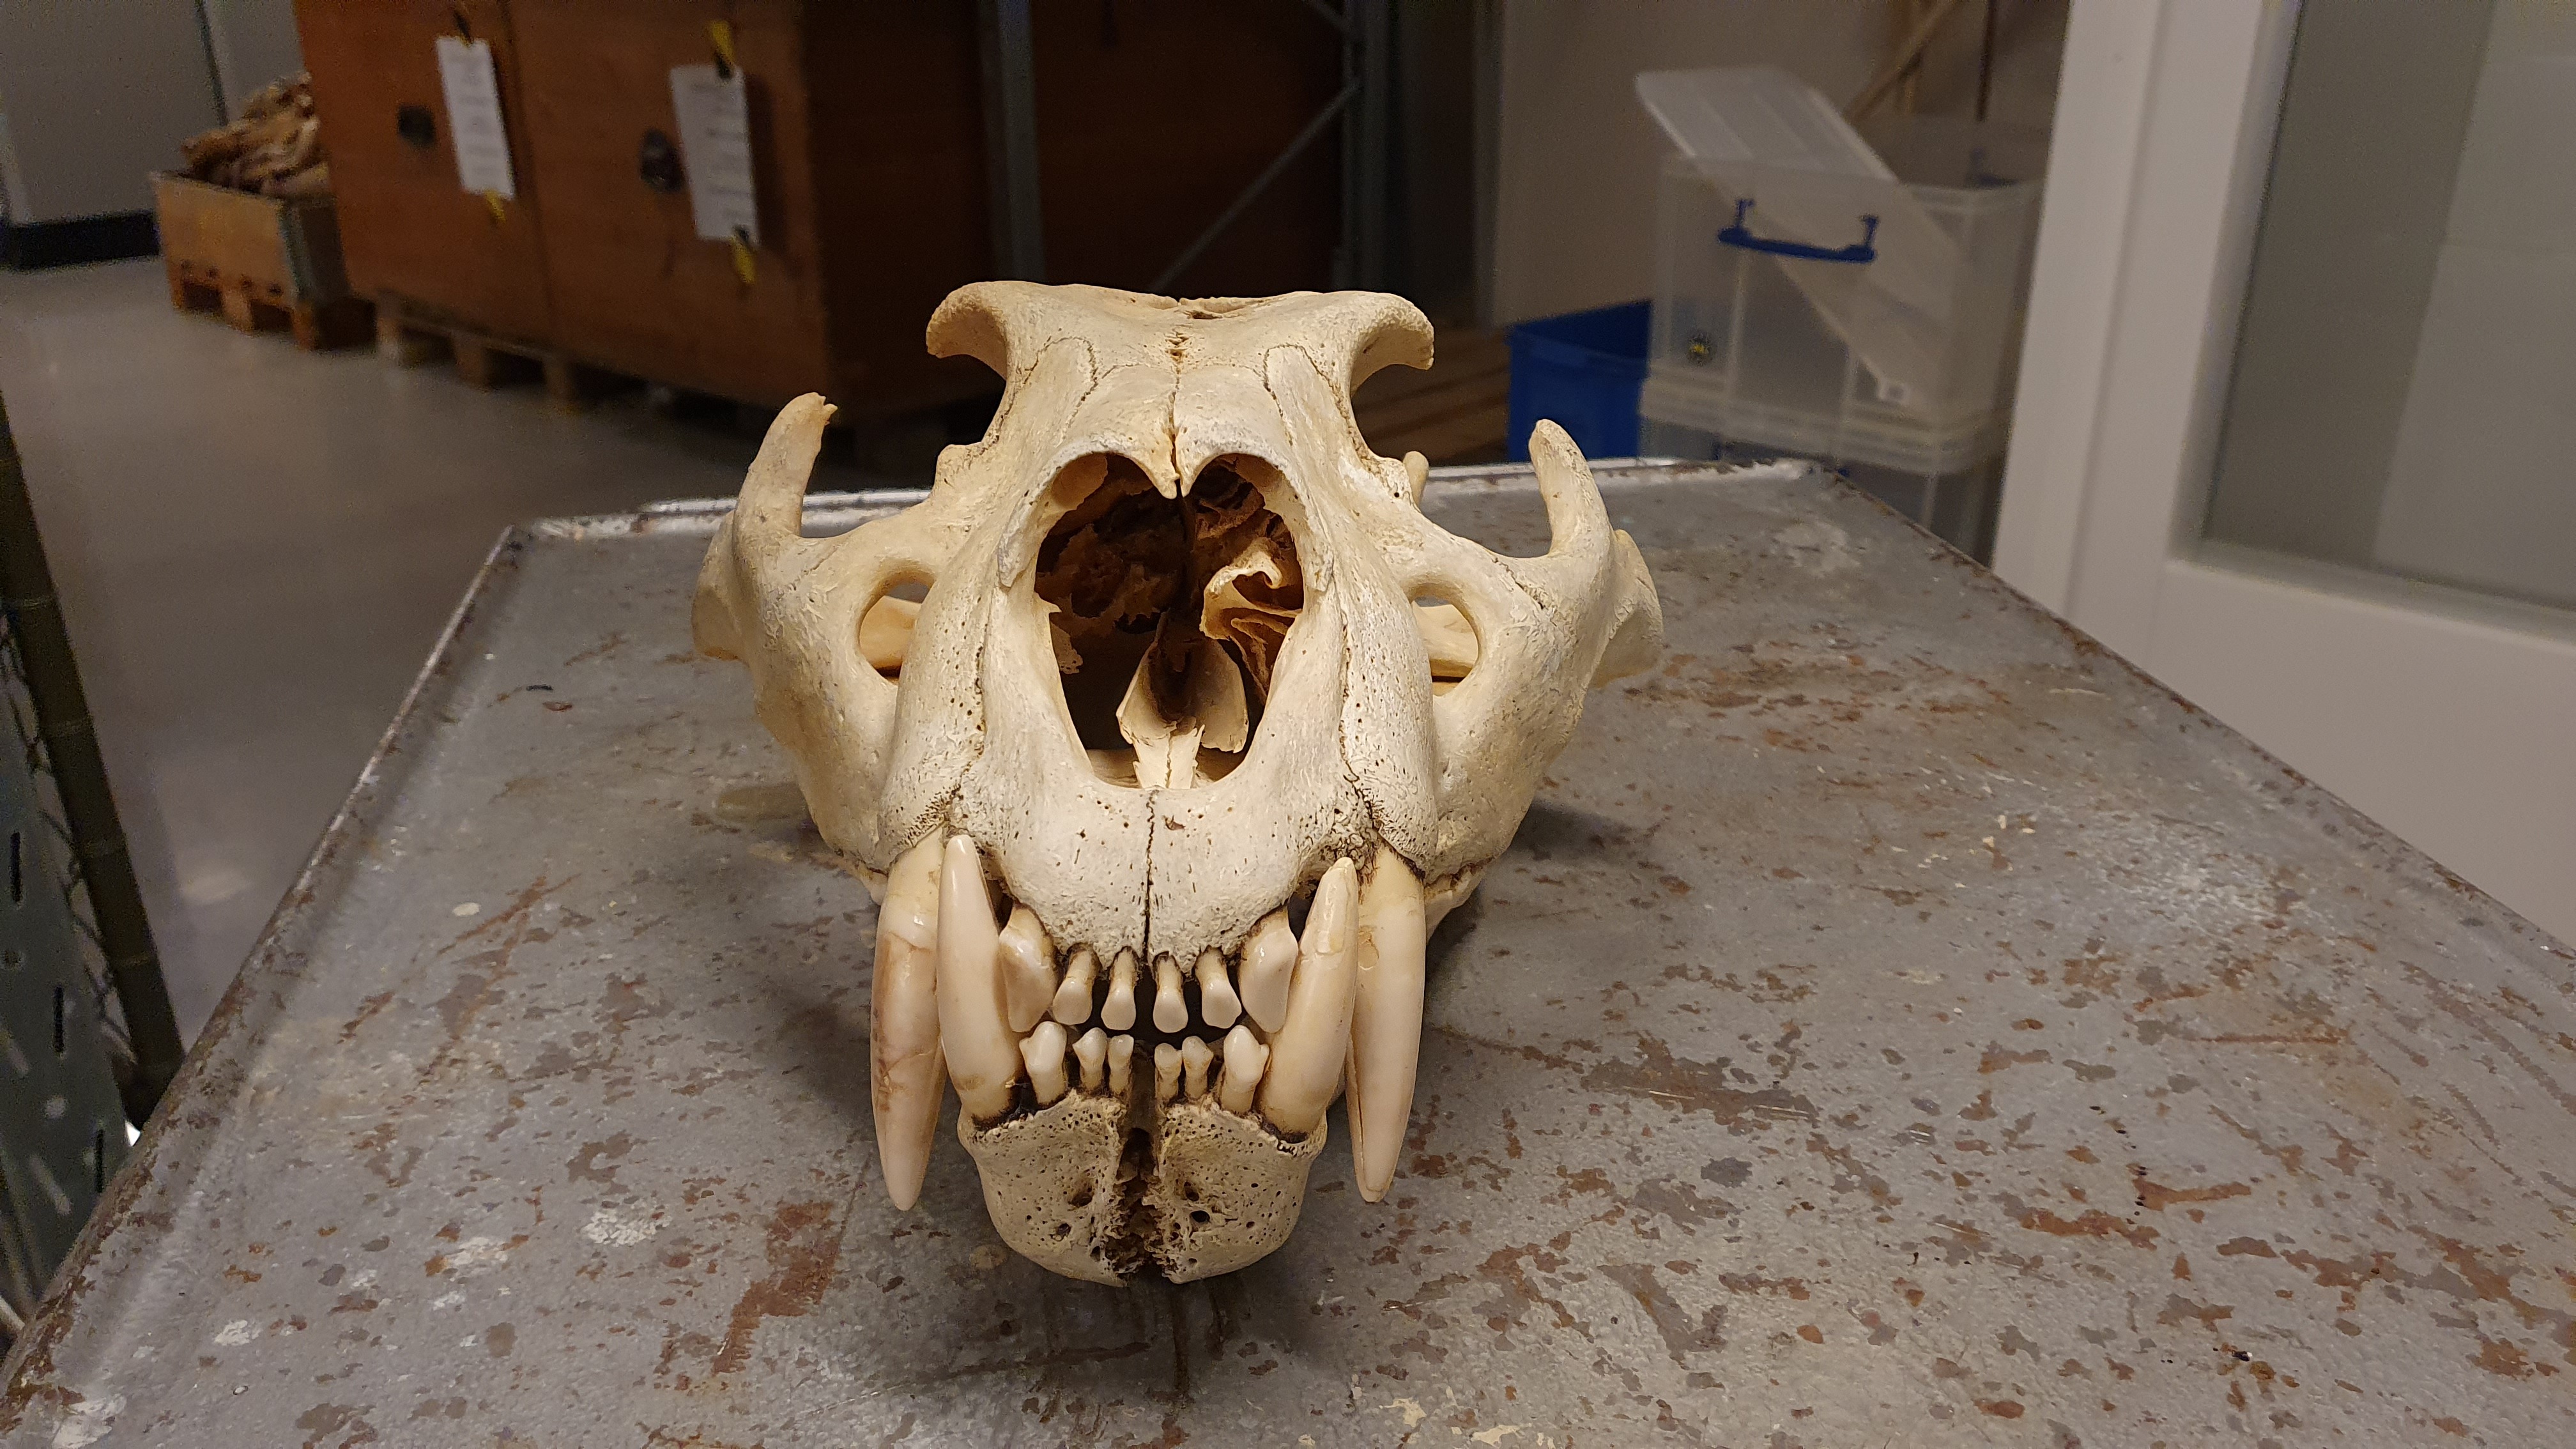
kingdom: Animalia
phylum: Chordata
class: Mammalia
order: Carnivora
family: Felidae
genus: Panthera
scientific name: Panthera leo
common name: Lion
